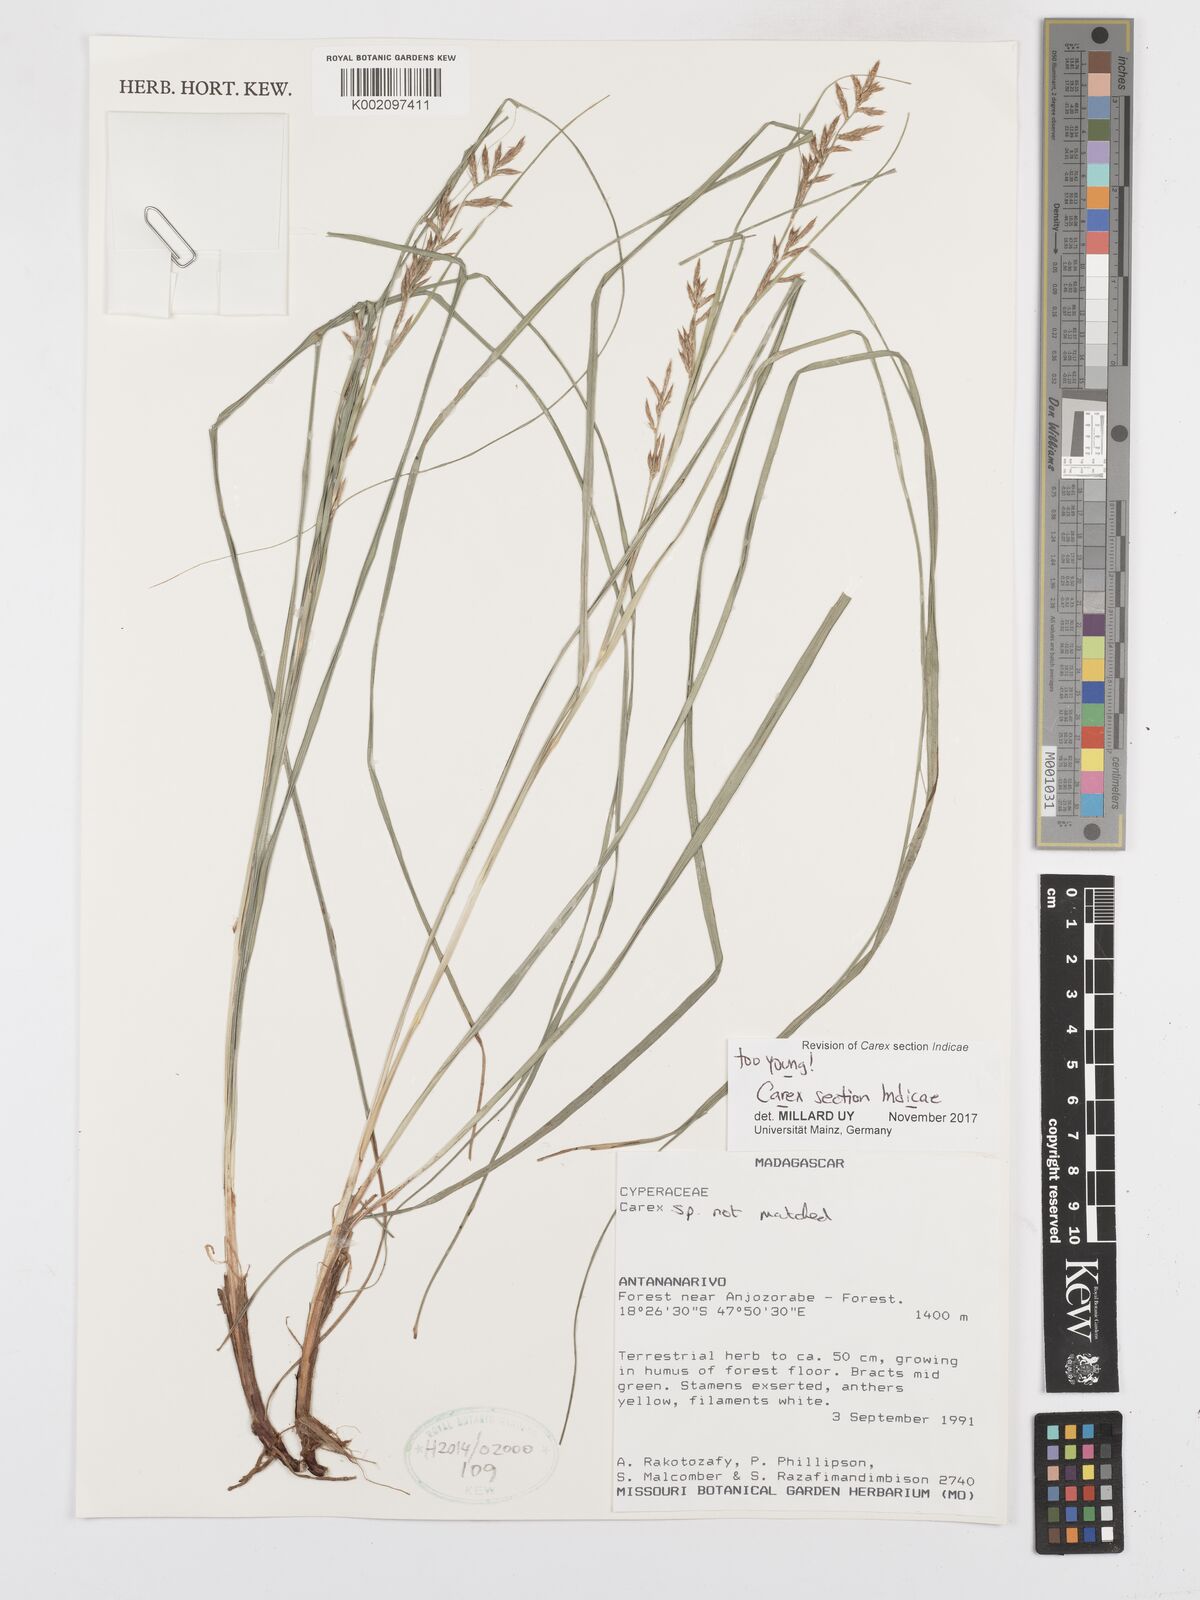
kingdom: Plantae
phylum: Tracheophyta
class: Liliopsida
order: Poales
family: Cyperaceae
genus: Carex
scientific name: Carex
